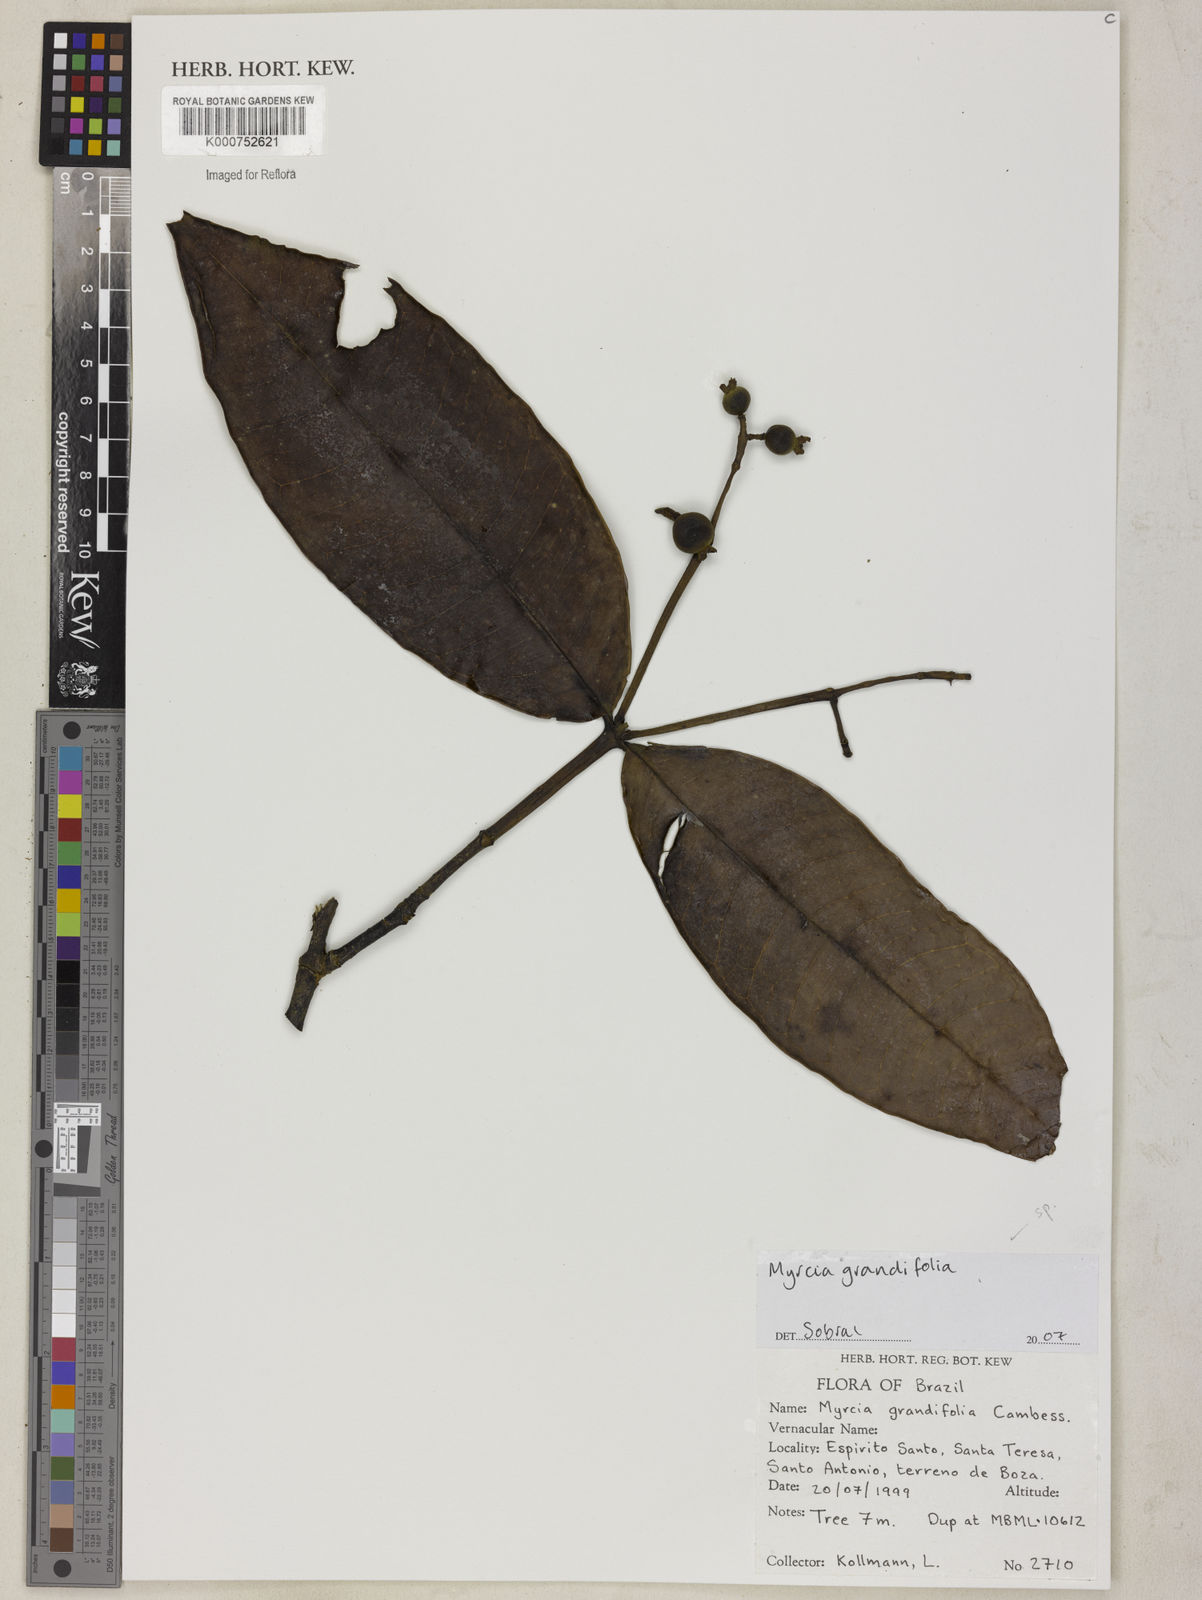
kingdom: Plantae
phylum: Tracheophyta
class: Magnoliopsida
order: Myrtales
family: Myrtaceae
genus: Myrcia
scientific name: Myrcia grandifolia
